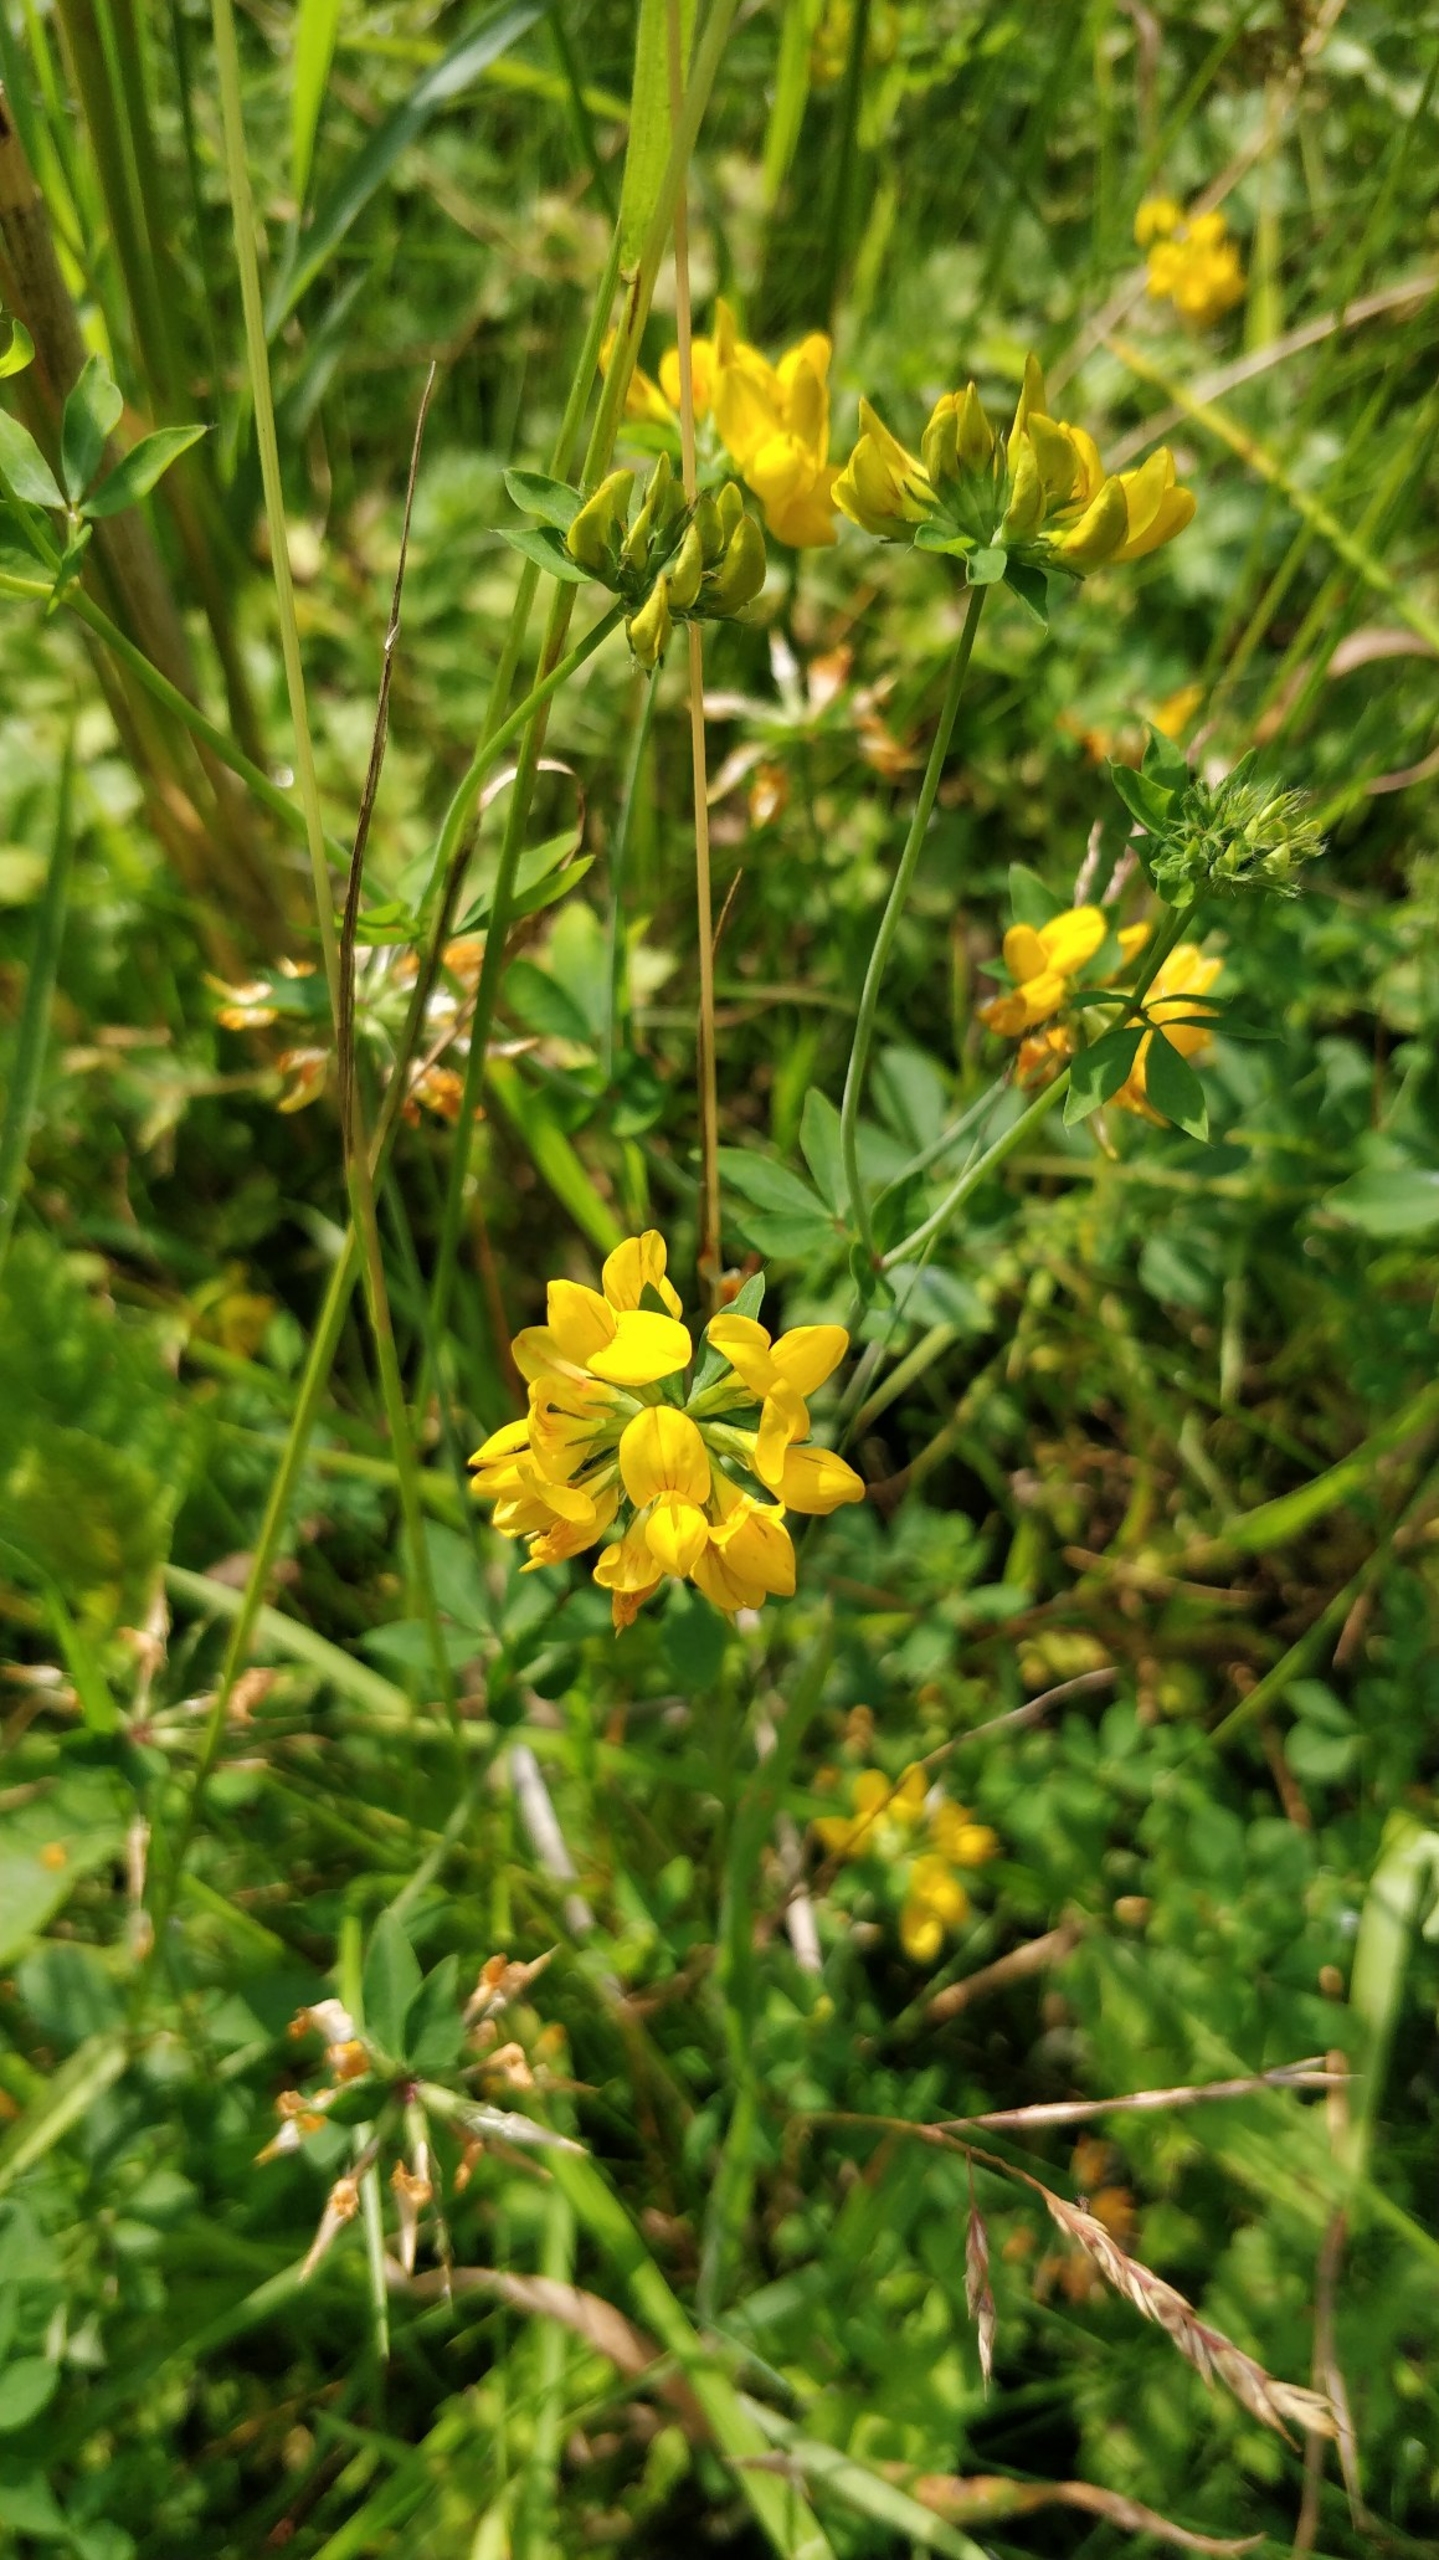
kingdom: Plantae
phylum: Tracheophyta
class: Magnoliopsida
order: Fabales
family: Fabaceae
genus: Lotus
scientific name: Lotus pedunculatus
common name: Sump-kællingetand
